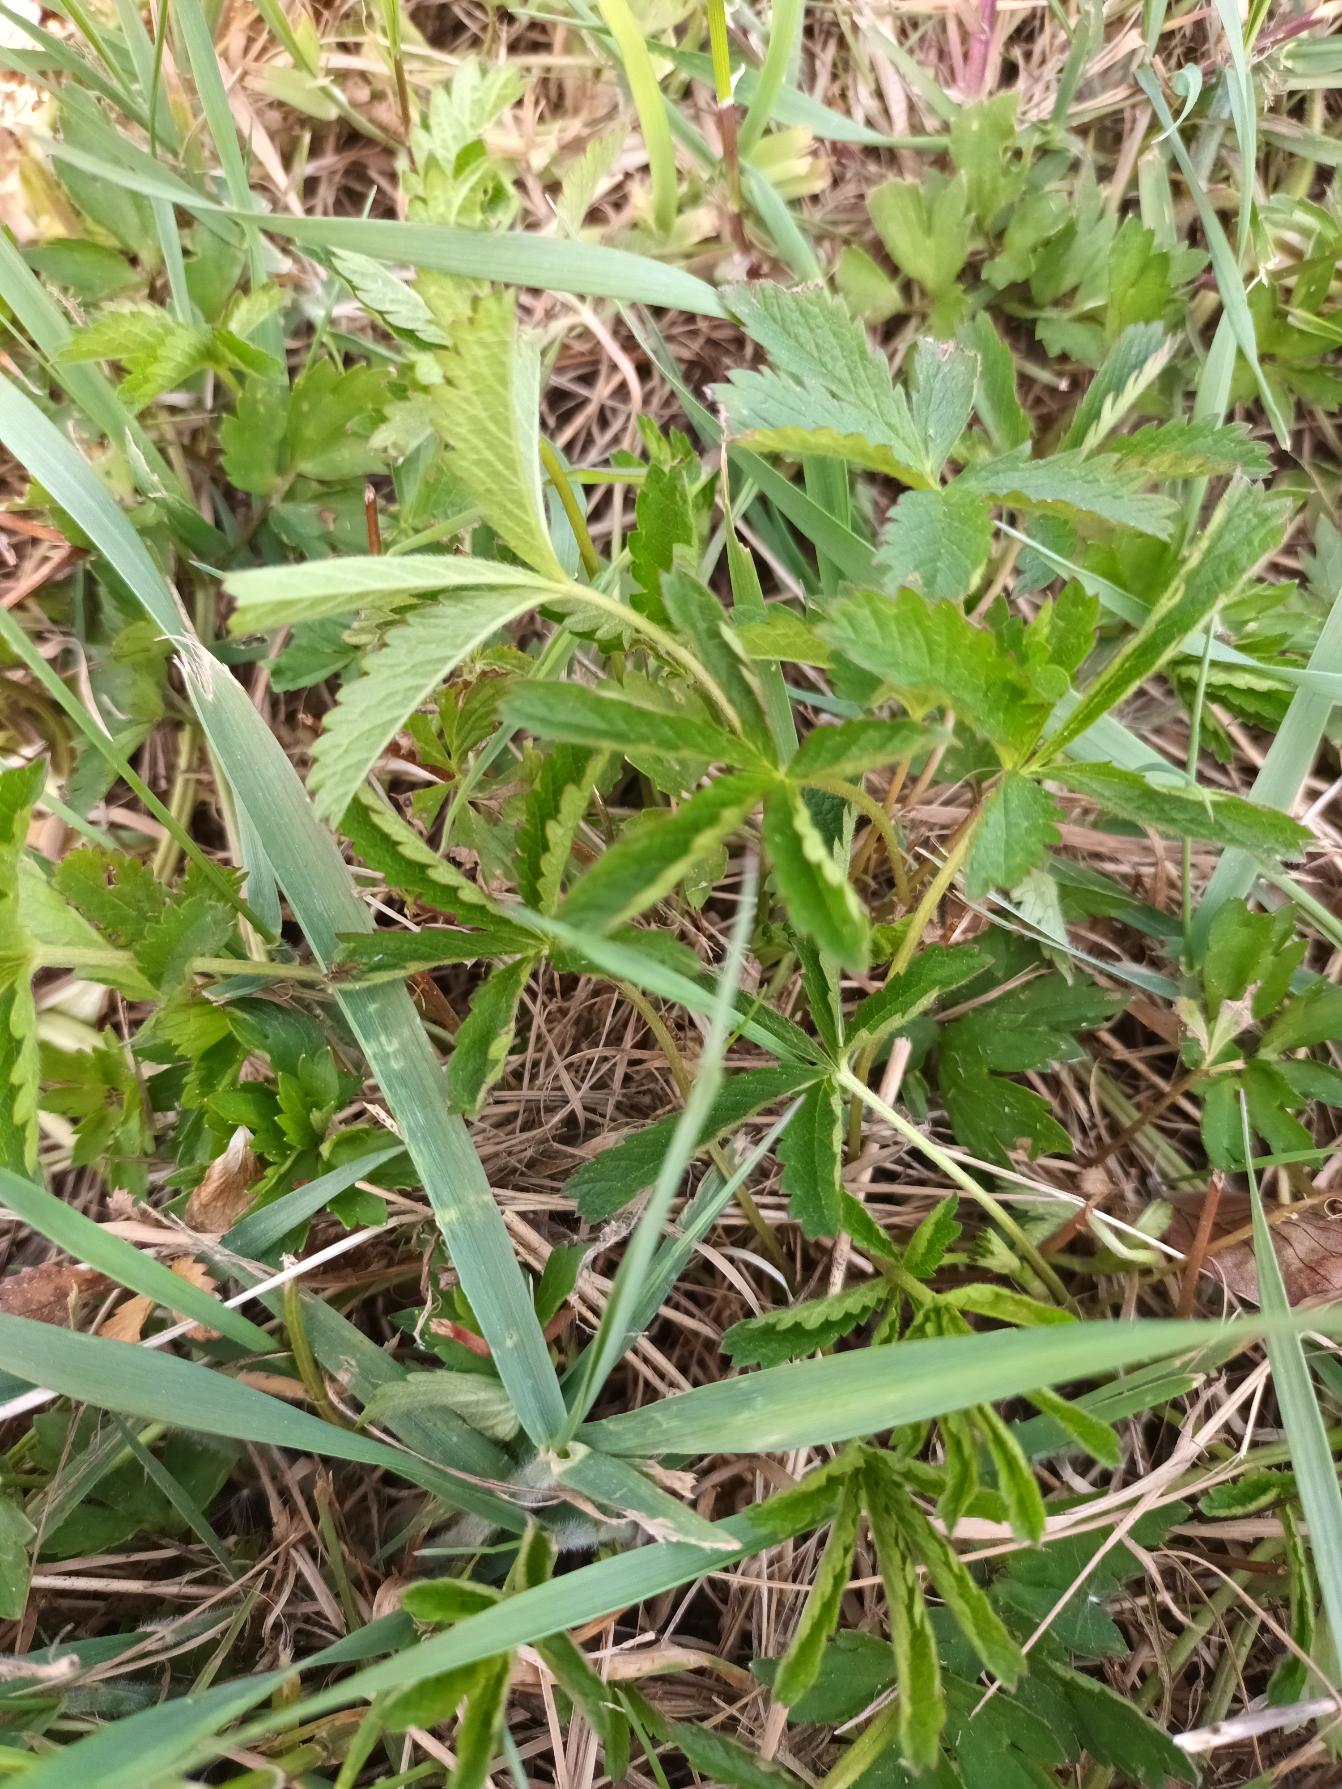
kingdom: Plantae
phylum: Tracheophyta
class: Magnoliopsida
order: Rosales
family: Rosaceae
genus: Potentilla
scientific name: Potentilla reptans
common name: Krybende potentil
